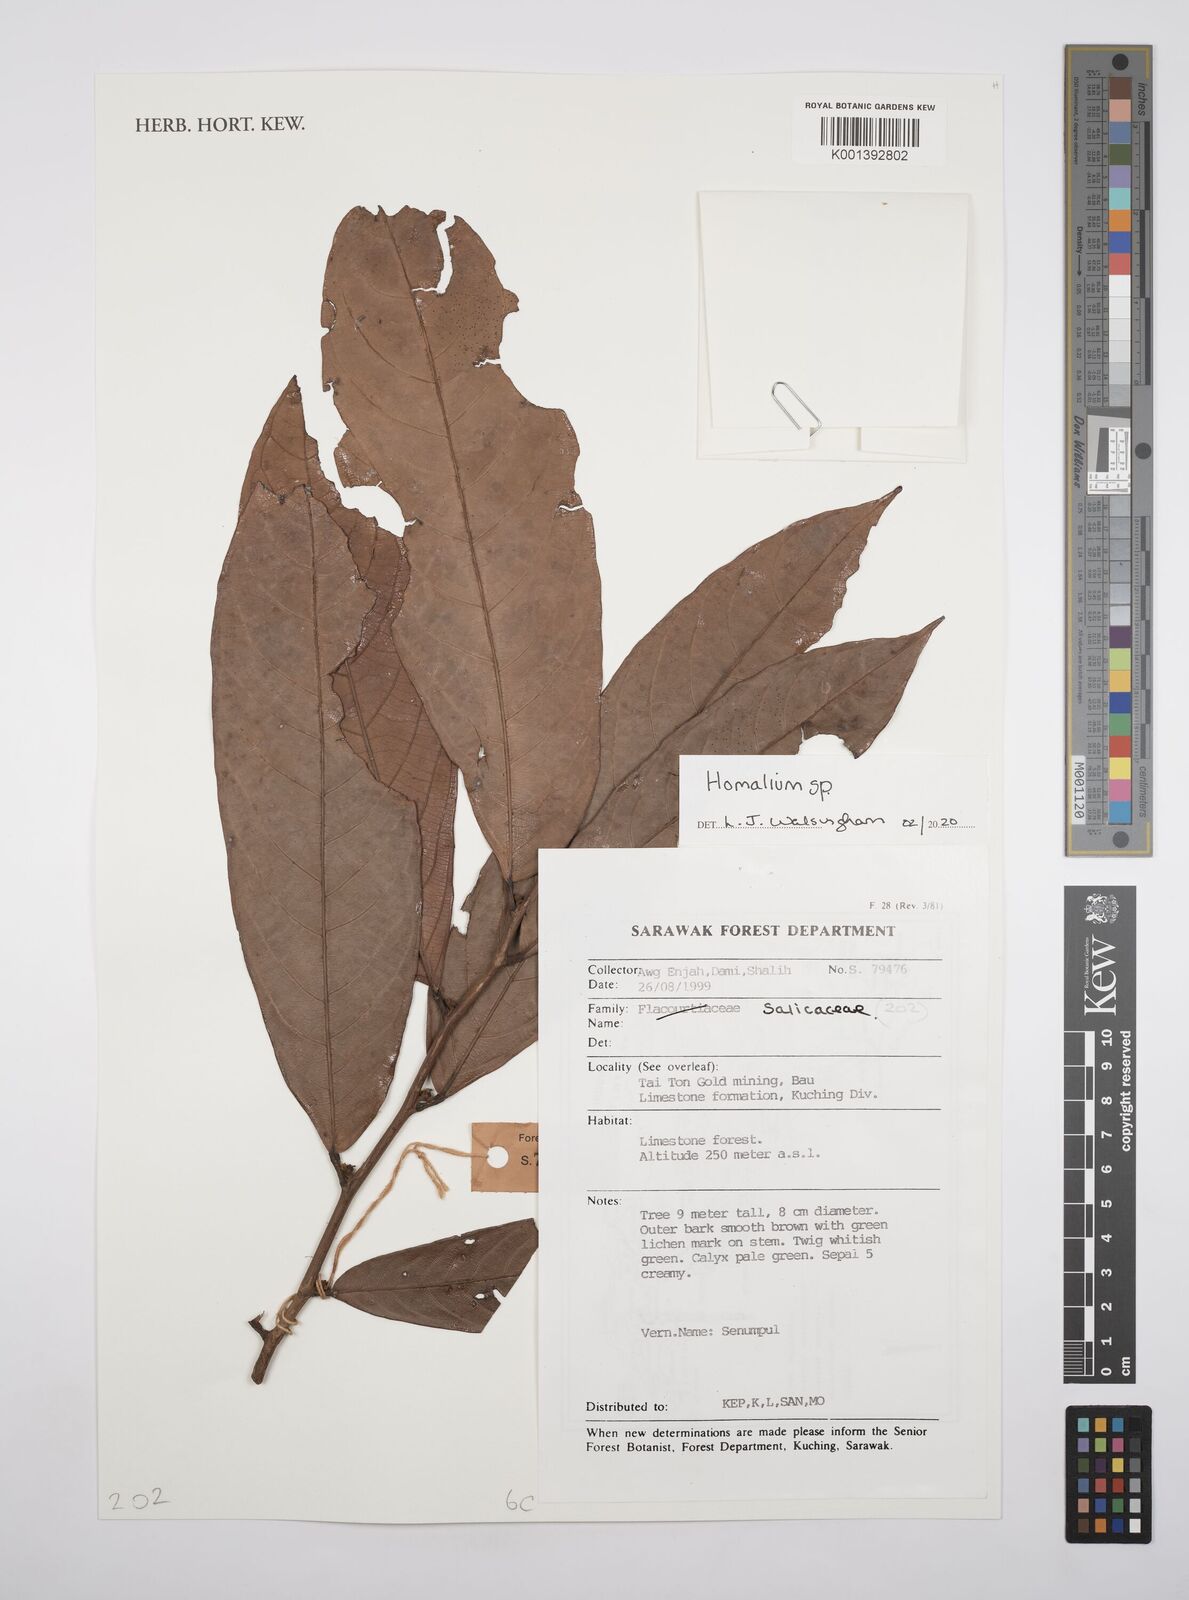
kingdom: Plantae
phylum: Tracheophyta
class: Magnoliopsida
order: Malpighiales
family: Salicaceae
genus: Homalium
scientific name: Homalium
